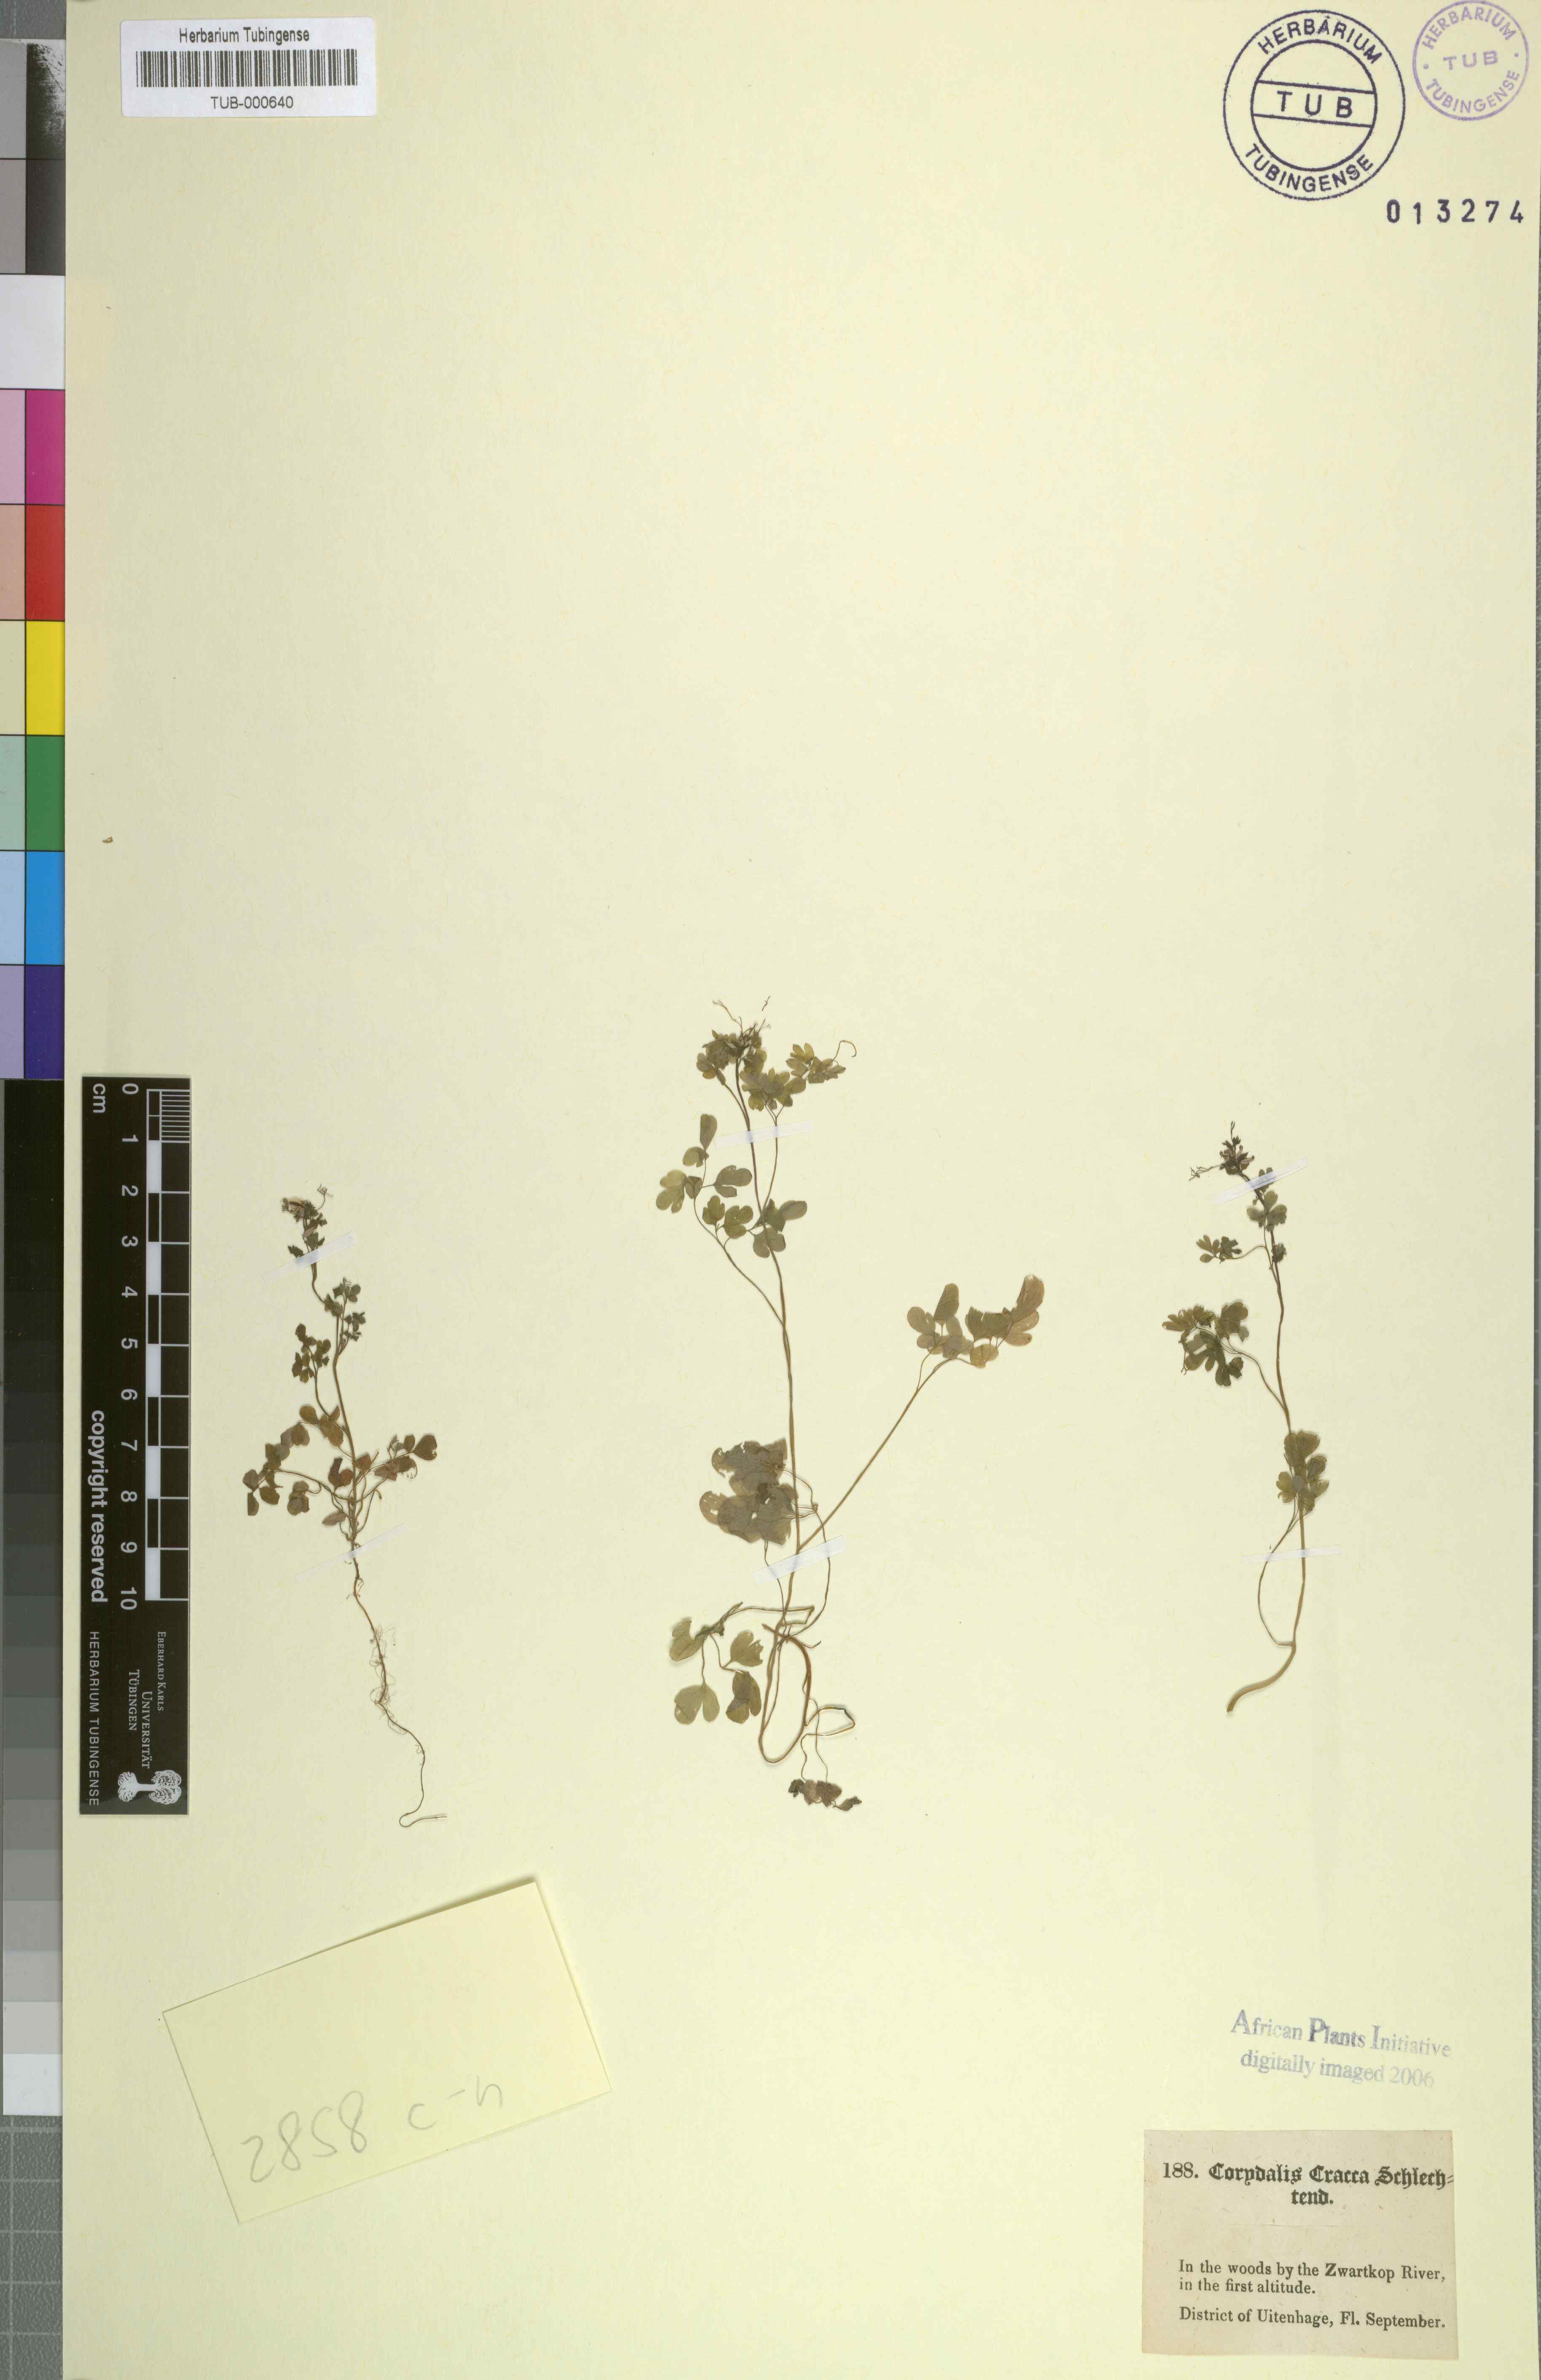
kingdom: Plantae
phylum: Tracheophyta
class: Magnoliopsida
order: Ranunculales
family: Papaveraceae
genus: Cysticapnos
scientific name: Cysticapnos cracca
